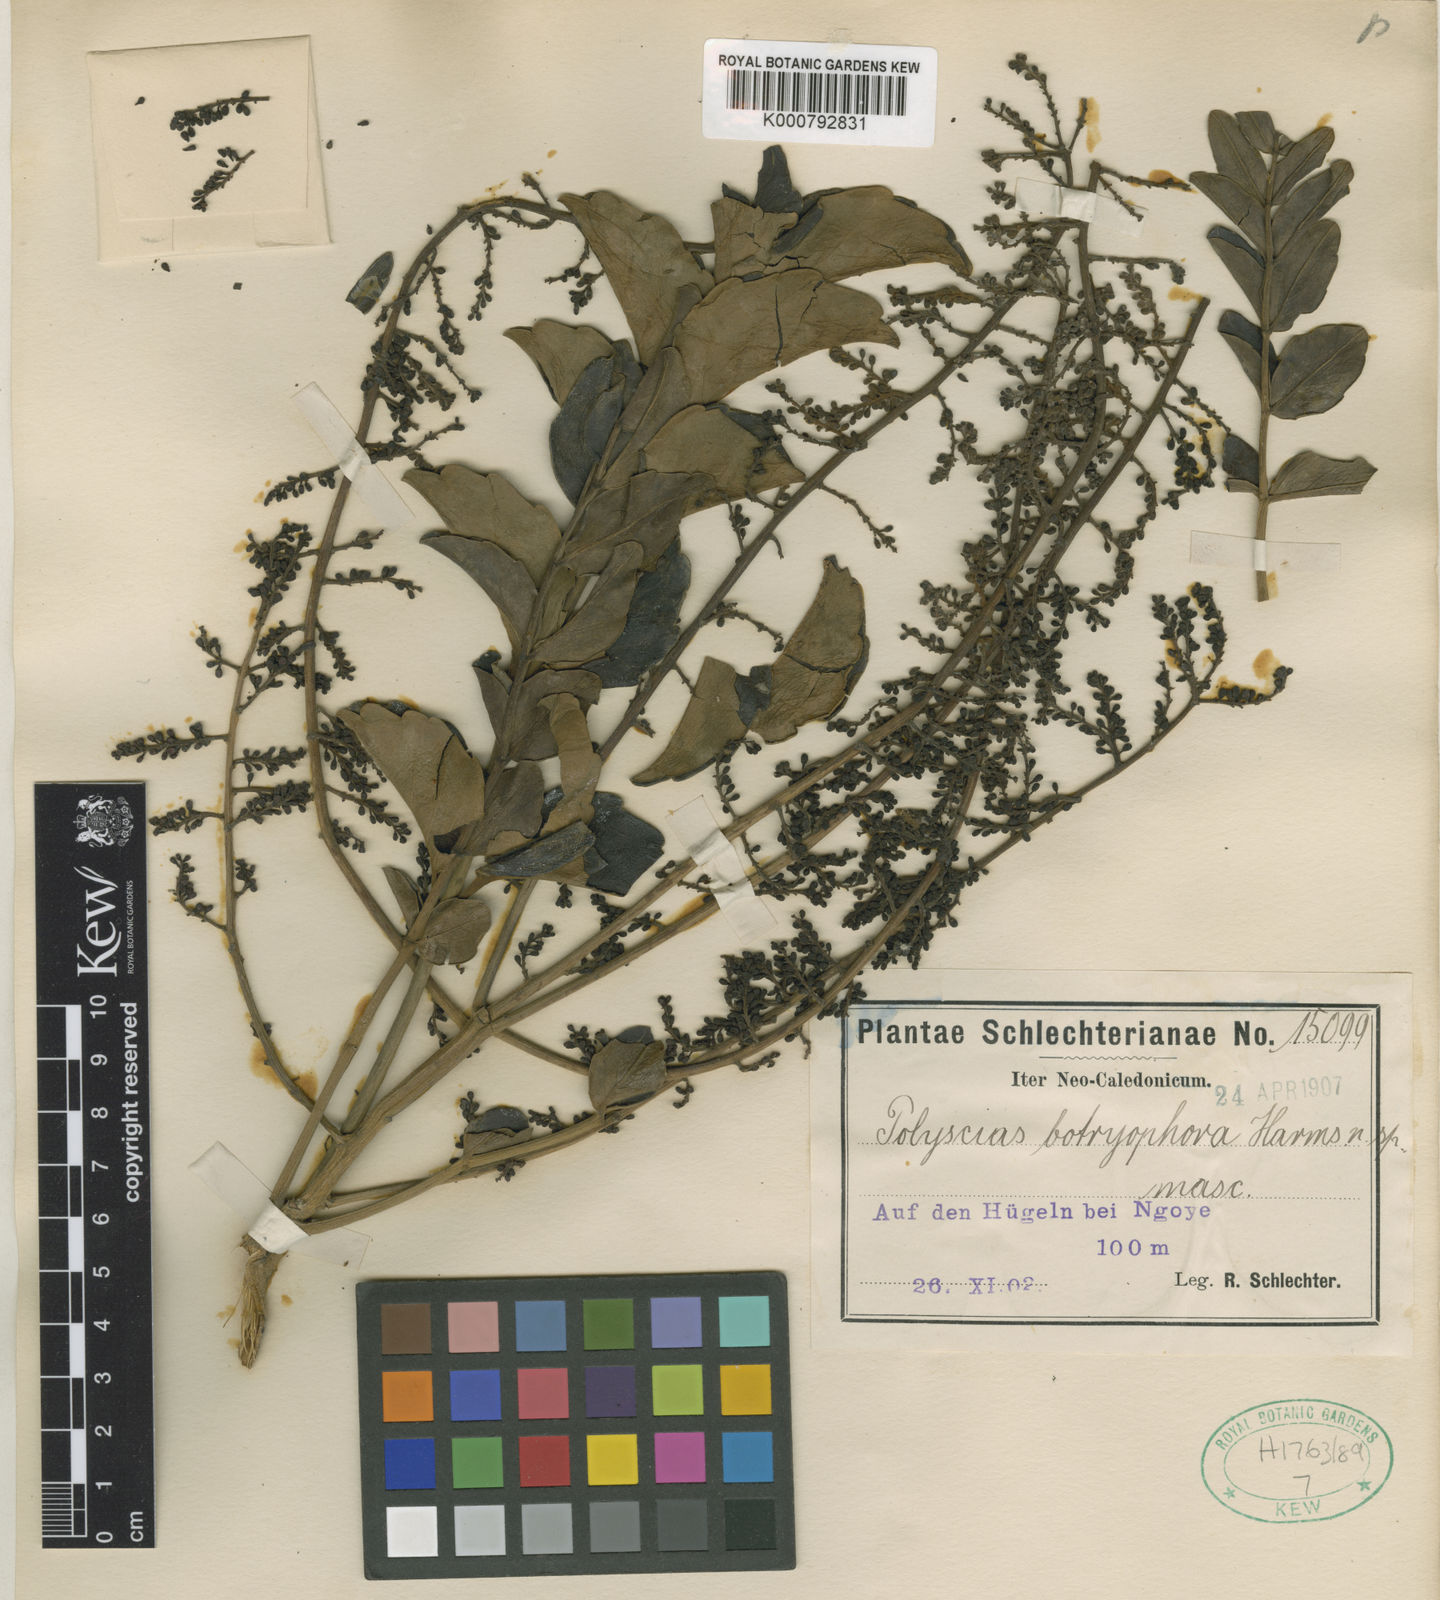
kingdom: Plantae
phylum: Tracheophyta
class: Magnoliopsida
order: Apiales
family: Araliaceae
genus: Polyscias
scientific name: Polyscias botryophora
